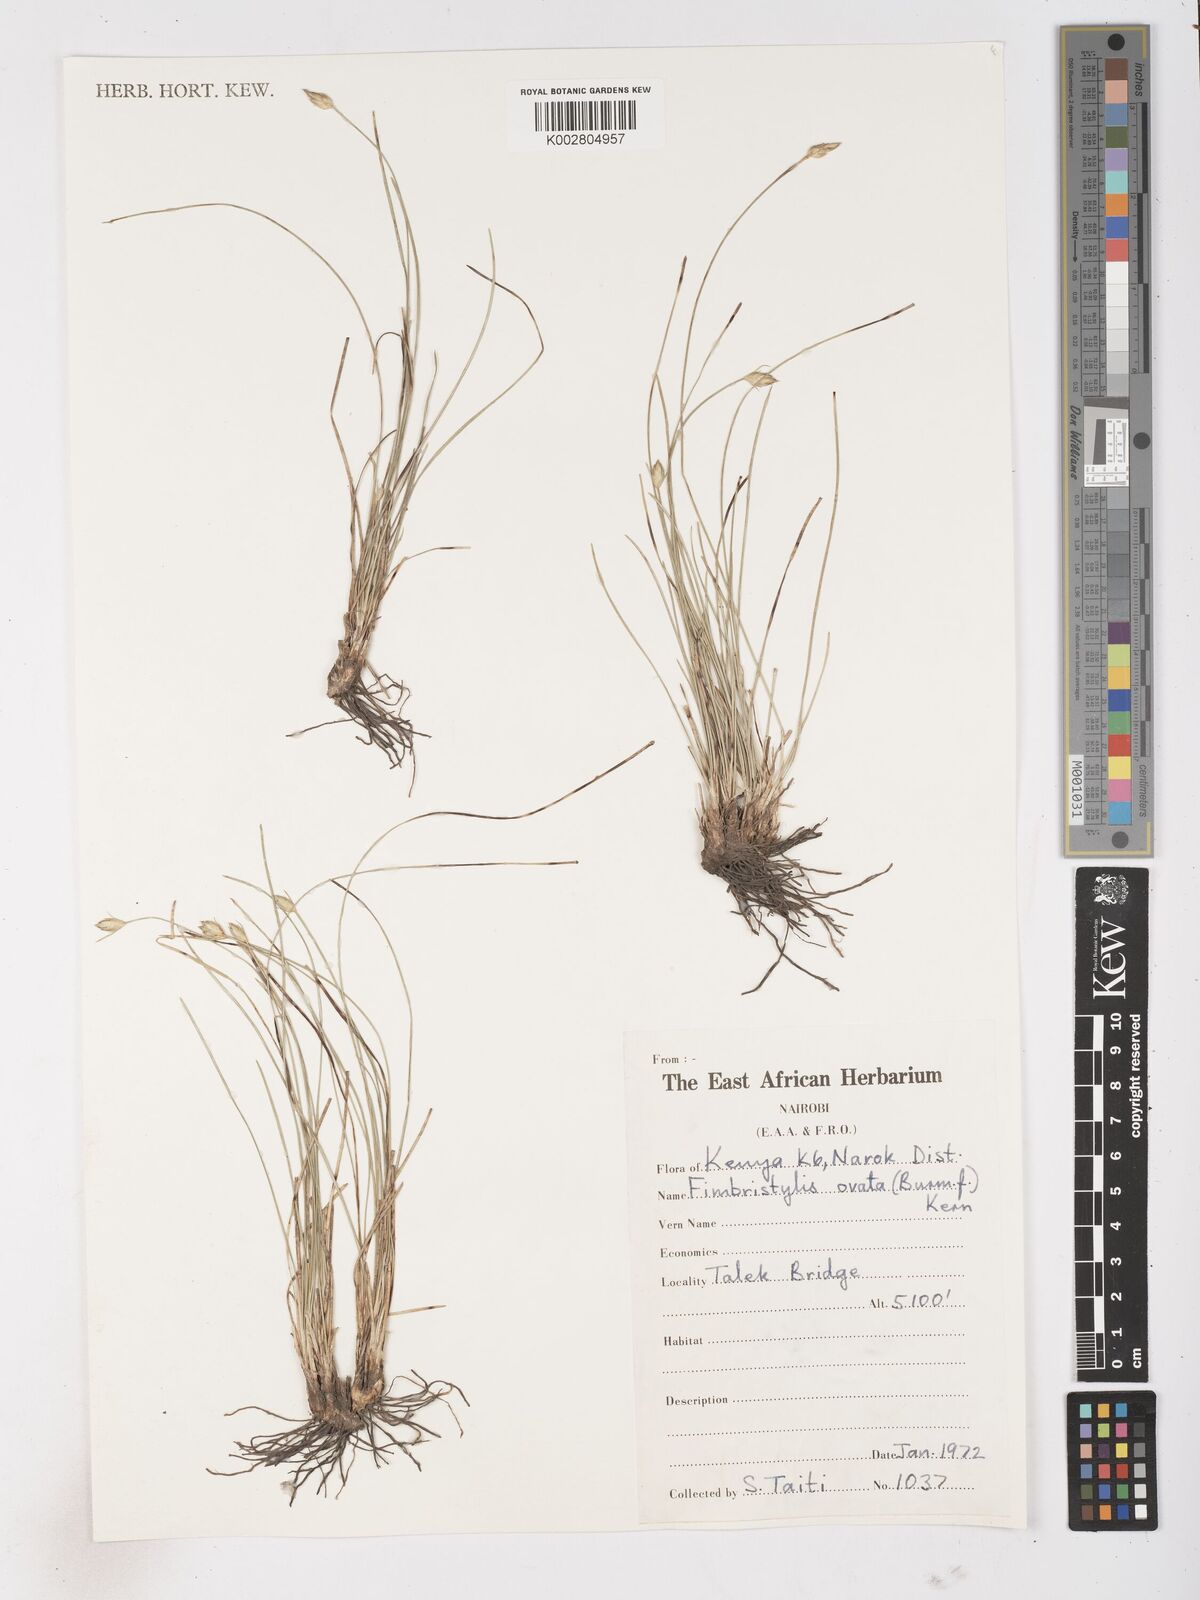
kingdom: Plantae
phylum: Tracheophyta
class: Liliopsida
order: Poales
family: Cyperaceae
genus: Abildgaardia
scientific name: Abildgaardia ovata
